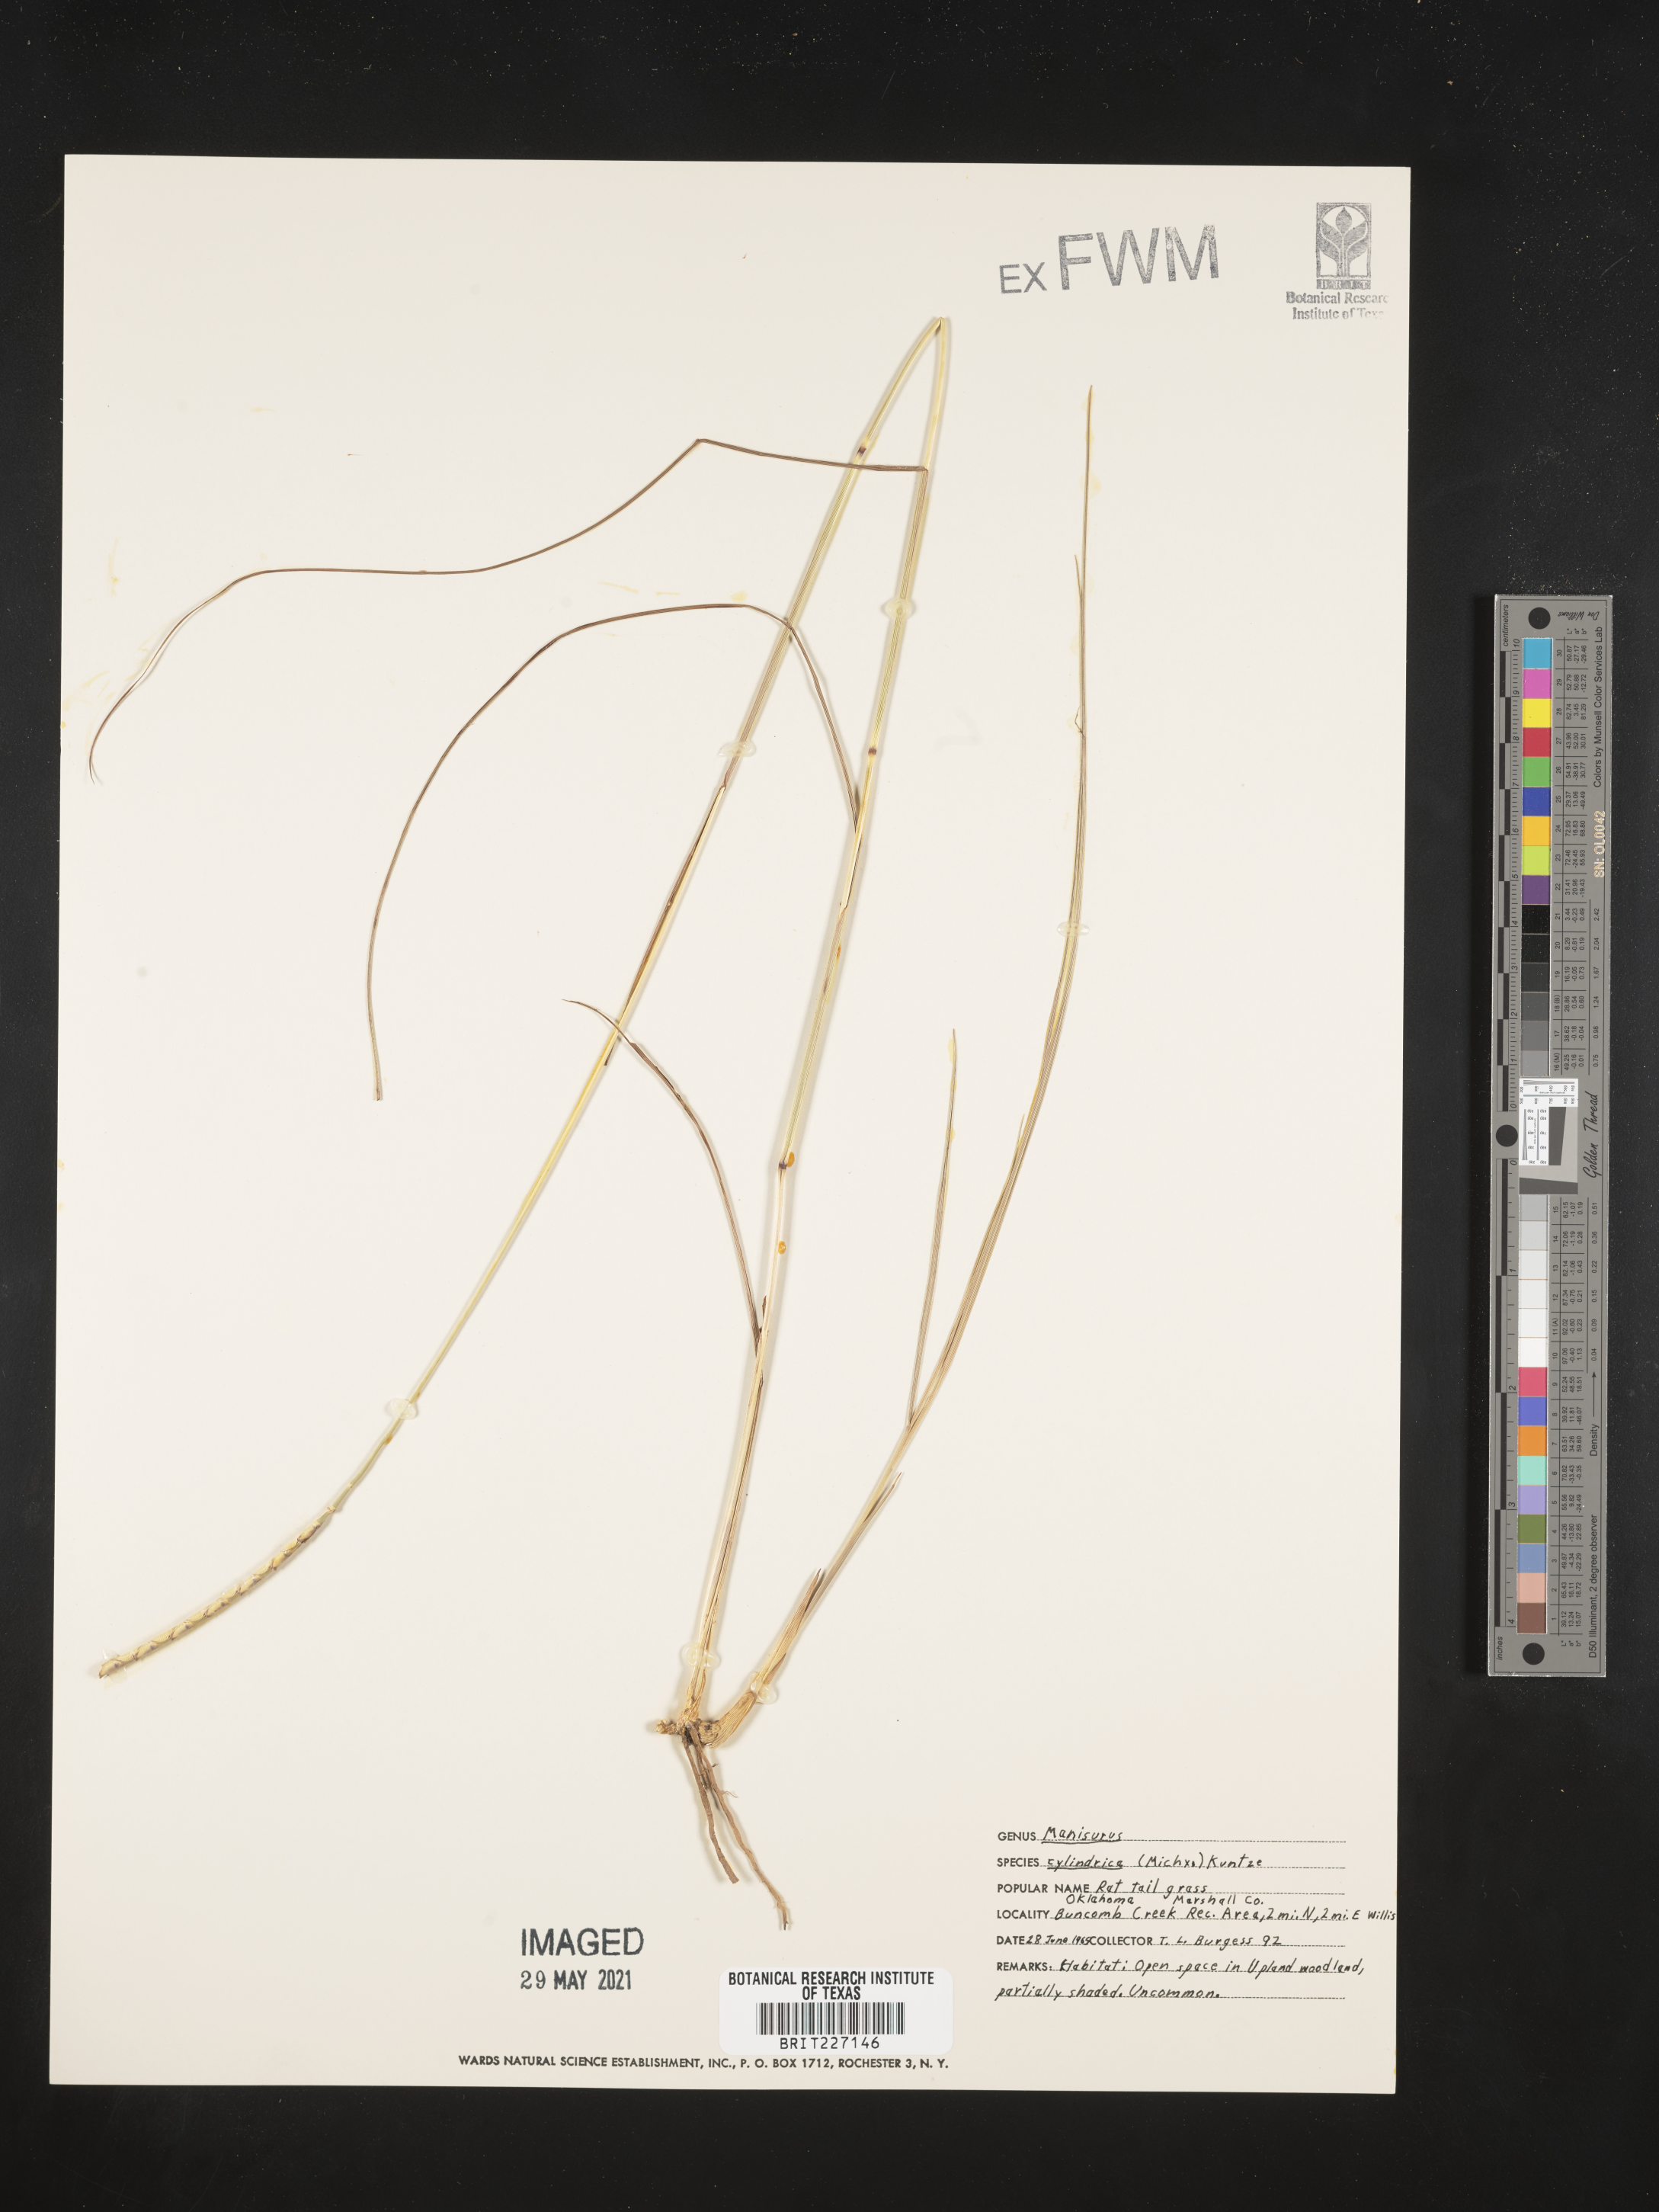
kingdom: Plantae
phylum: Tracheophyta
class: Liliopsida
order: Poales
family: Poaceae
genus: Rottboellia
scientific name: Rottboellia campestris
